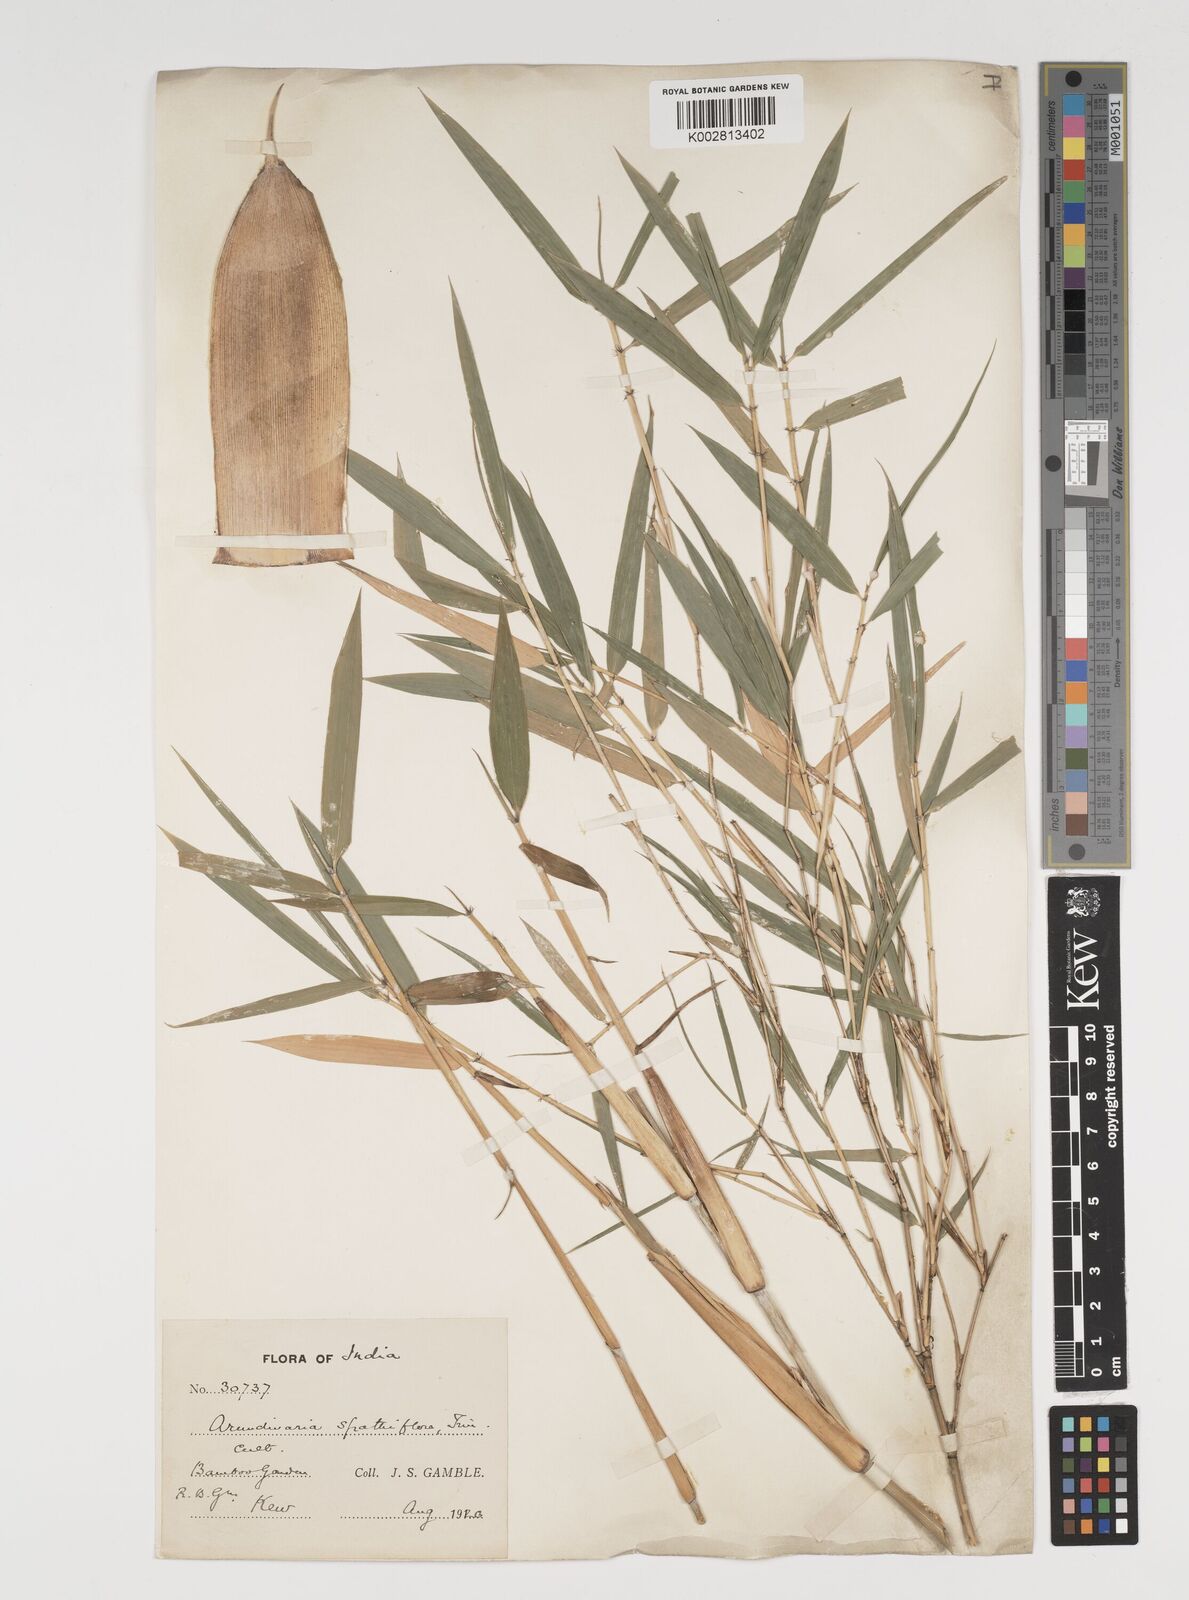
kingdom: Plantae
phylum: Tracheophyta
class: Liliopsida
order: Poales
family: Poaceae
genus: Thamnocalamus
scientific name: Thamnocalamus spathiflorus
